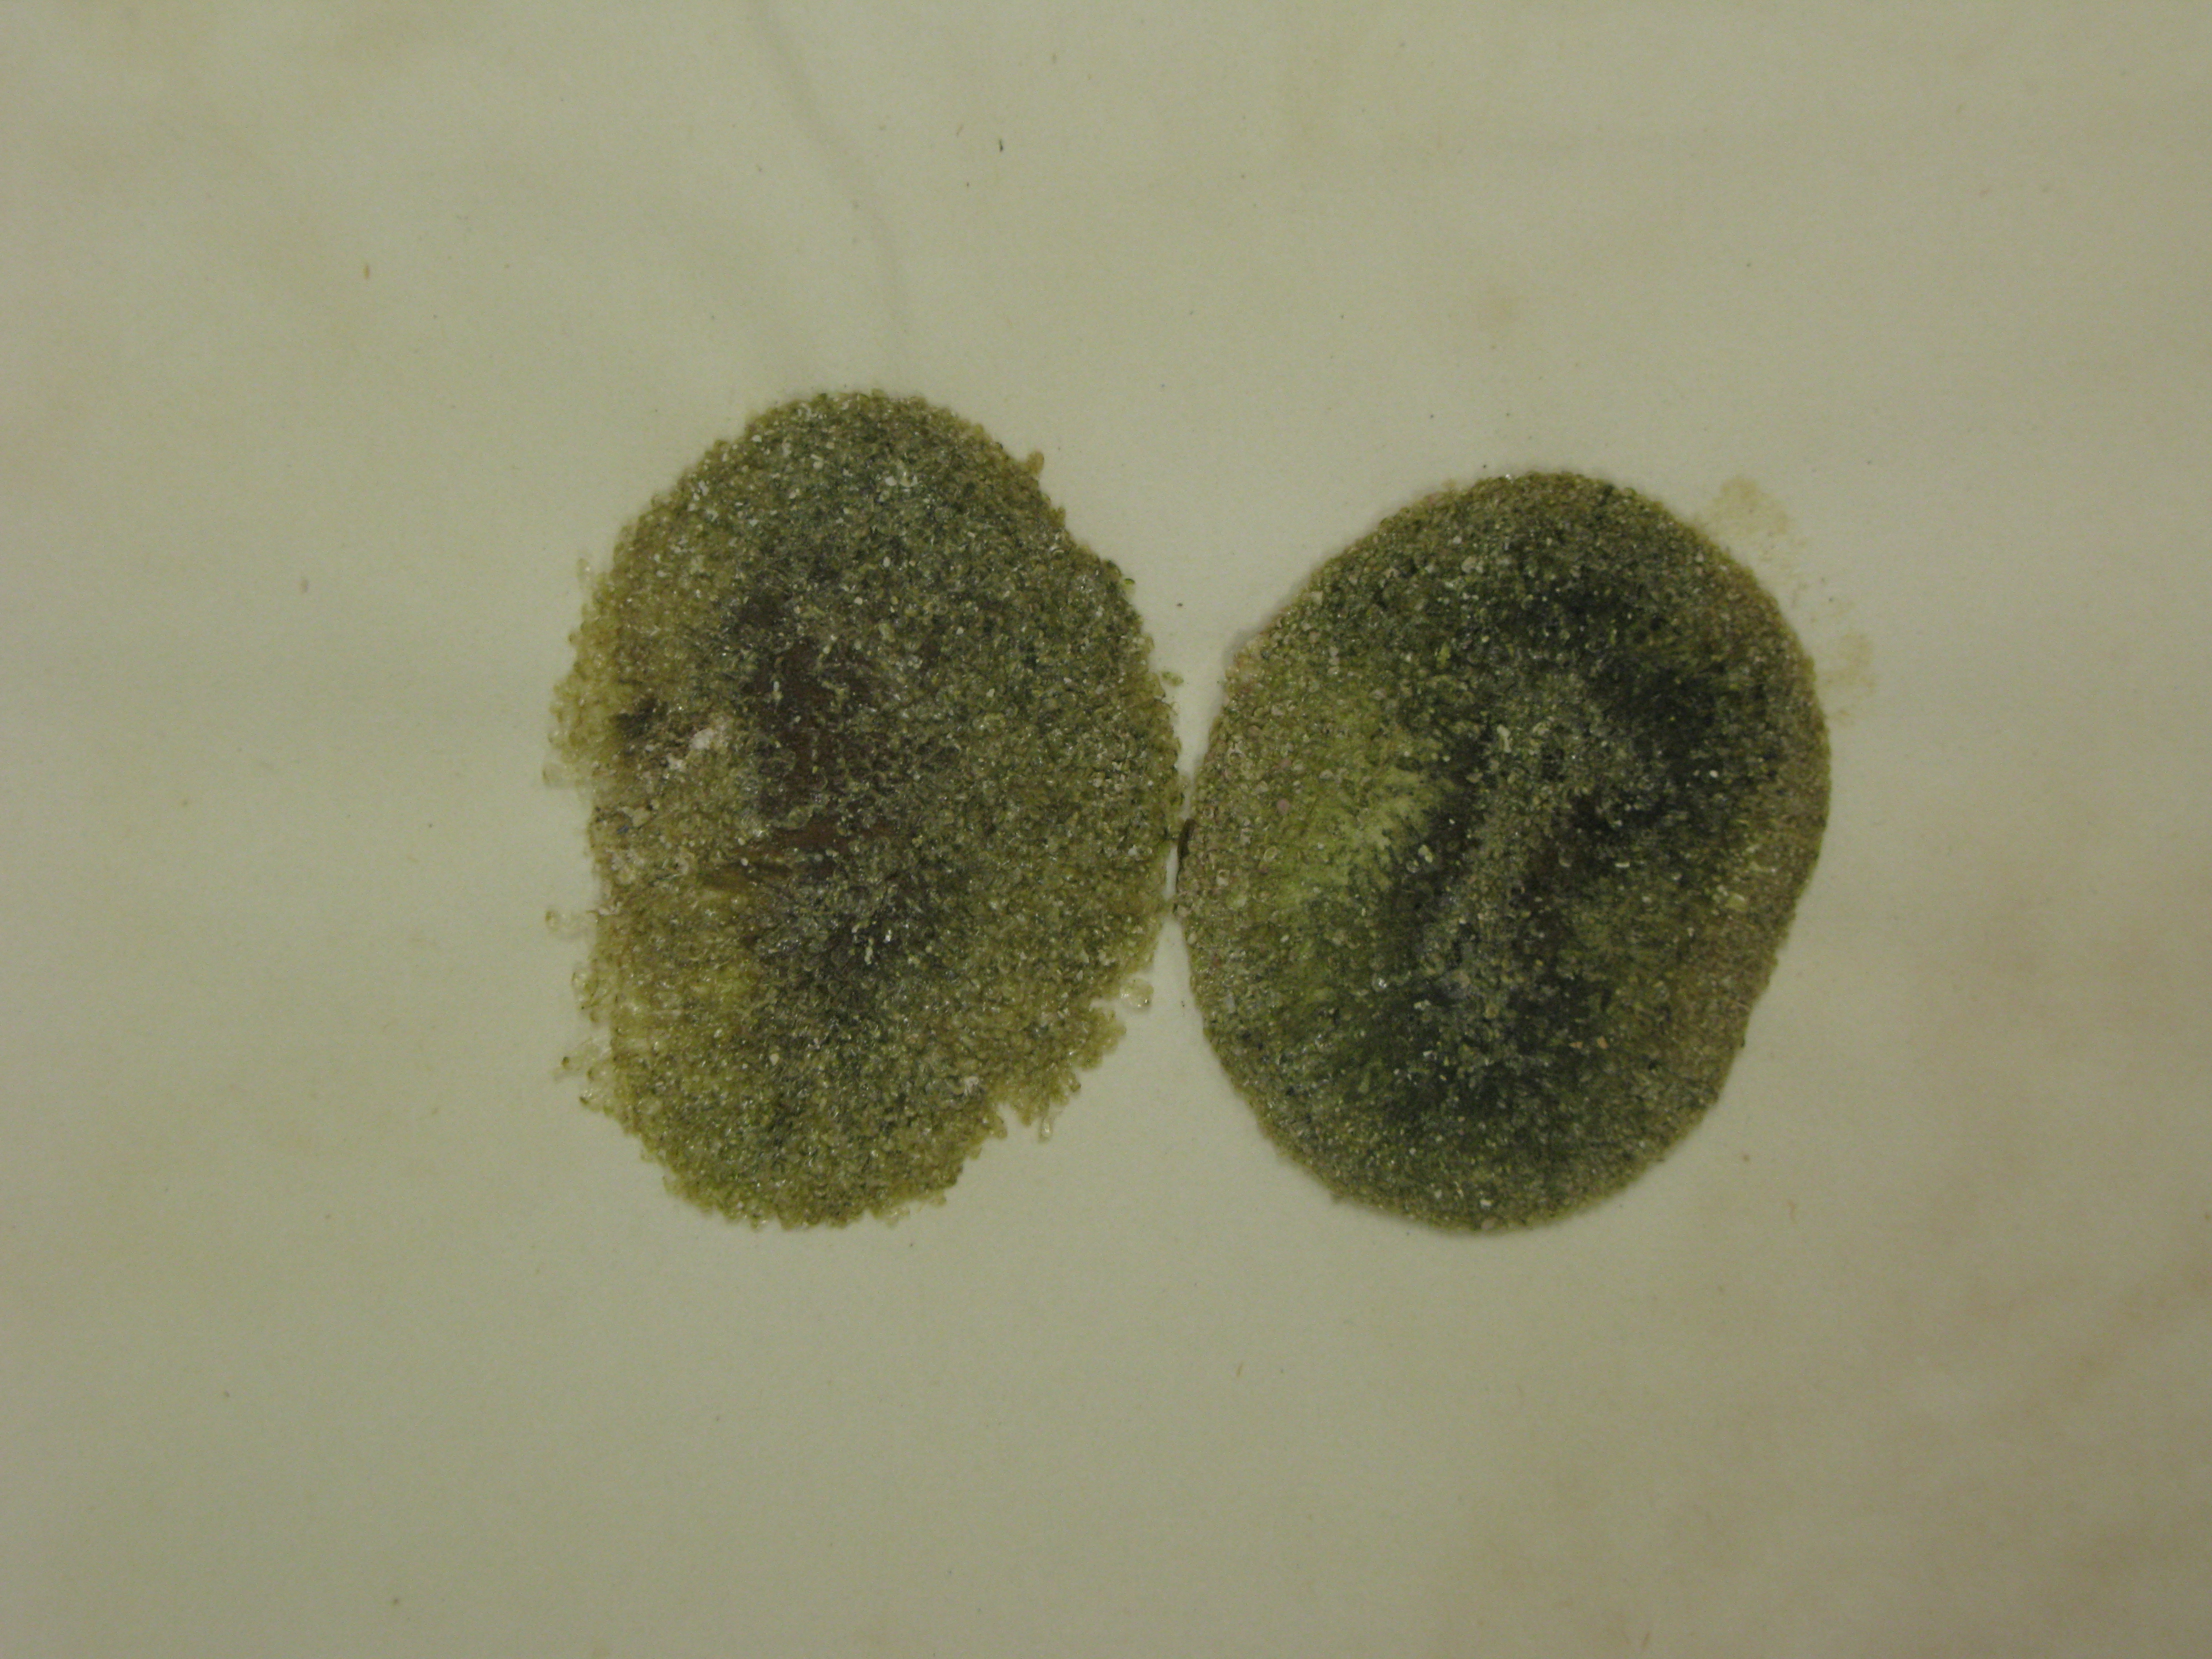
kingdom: Plantae
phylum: Chlorophyta
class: Ulvophyceae
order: Bryopsidales
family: Codiaceae
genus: Codium
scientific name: Codium dimorphum
